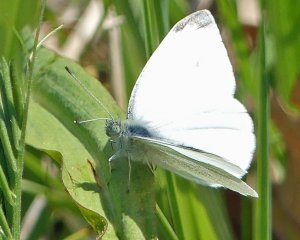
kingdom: Animalia
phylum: Arthropoda
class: Insecta
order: Lepidoptera
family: Pieridae
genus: Pieris
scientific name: Pieris rapae
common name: Cabbage White
